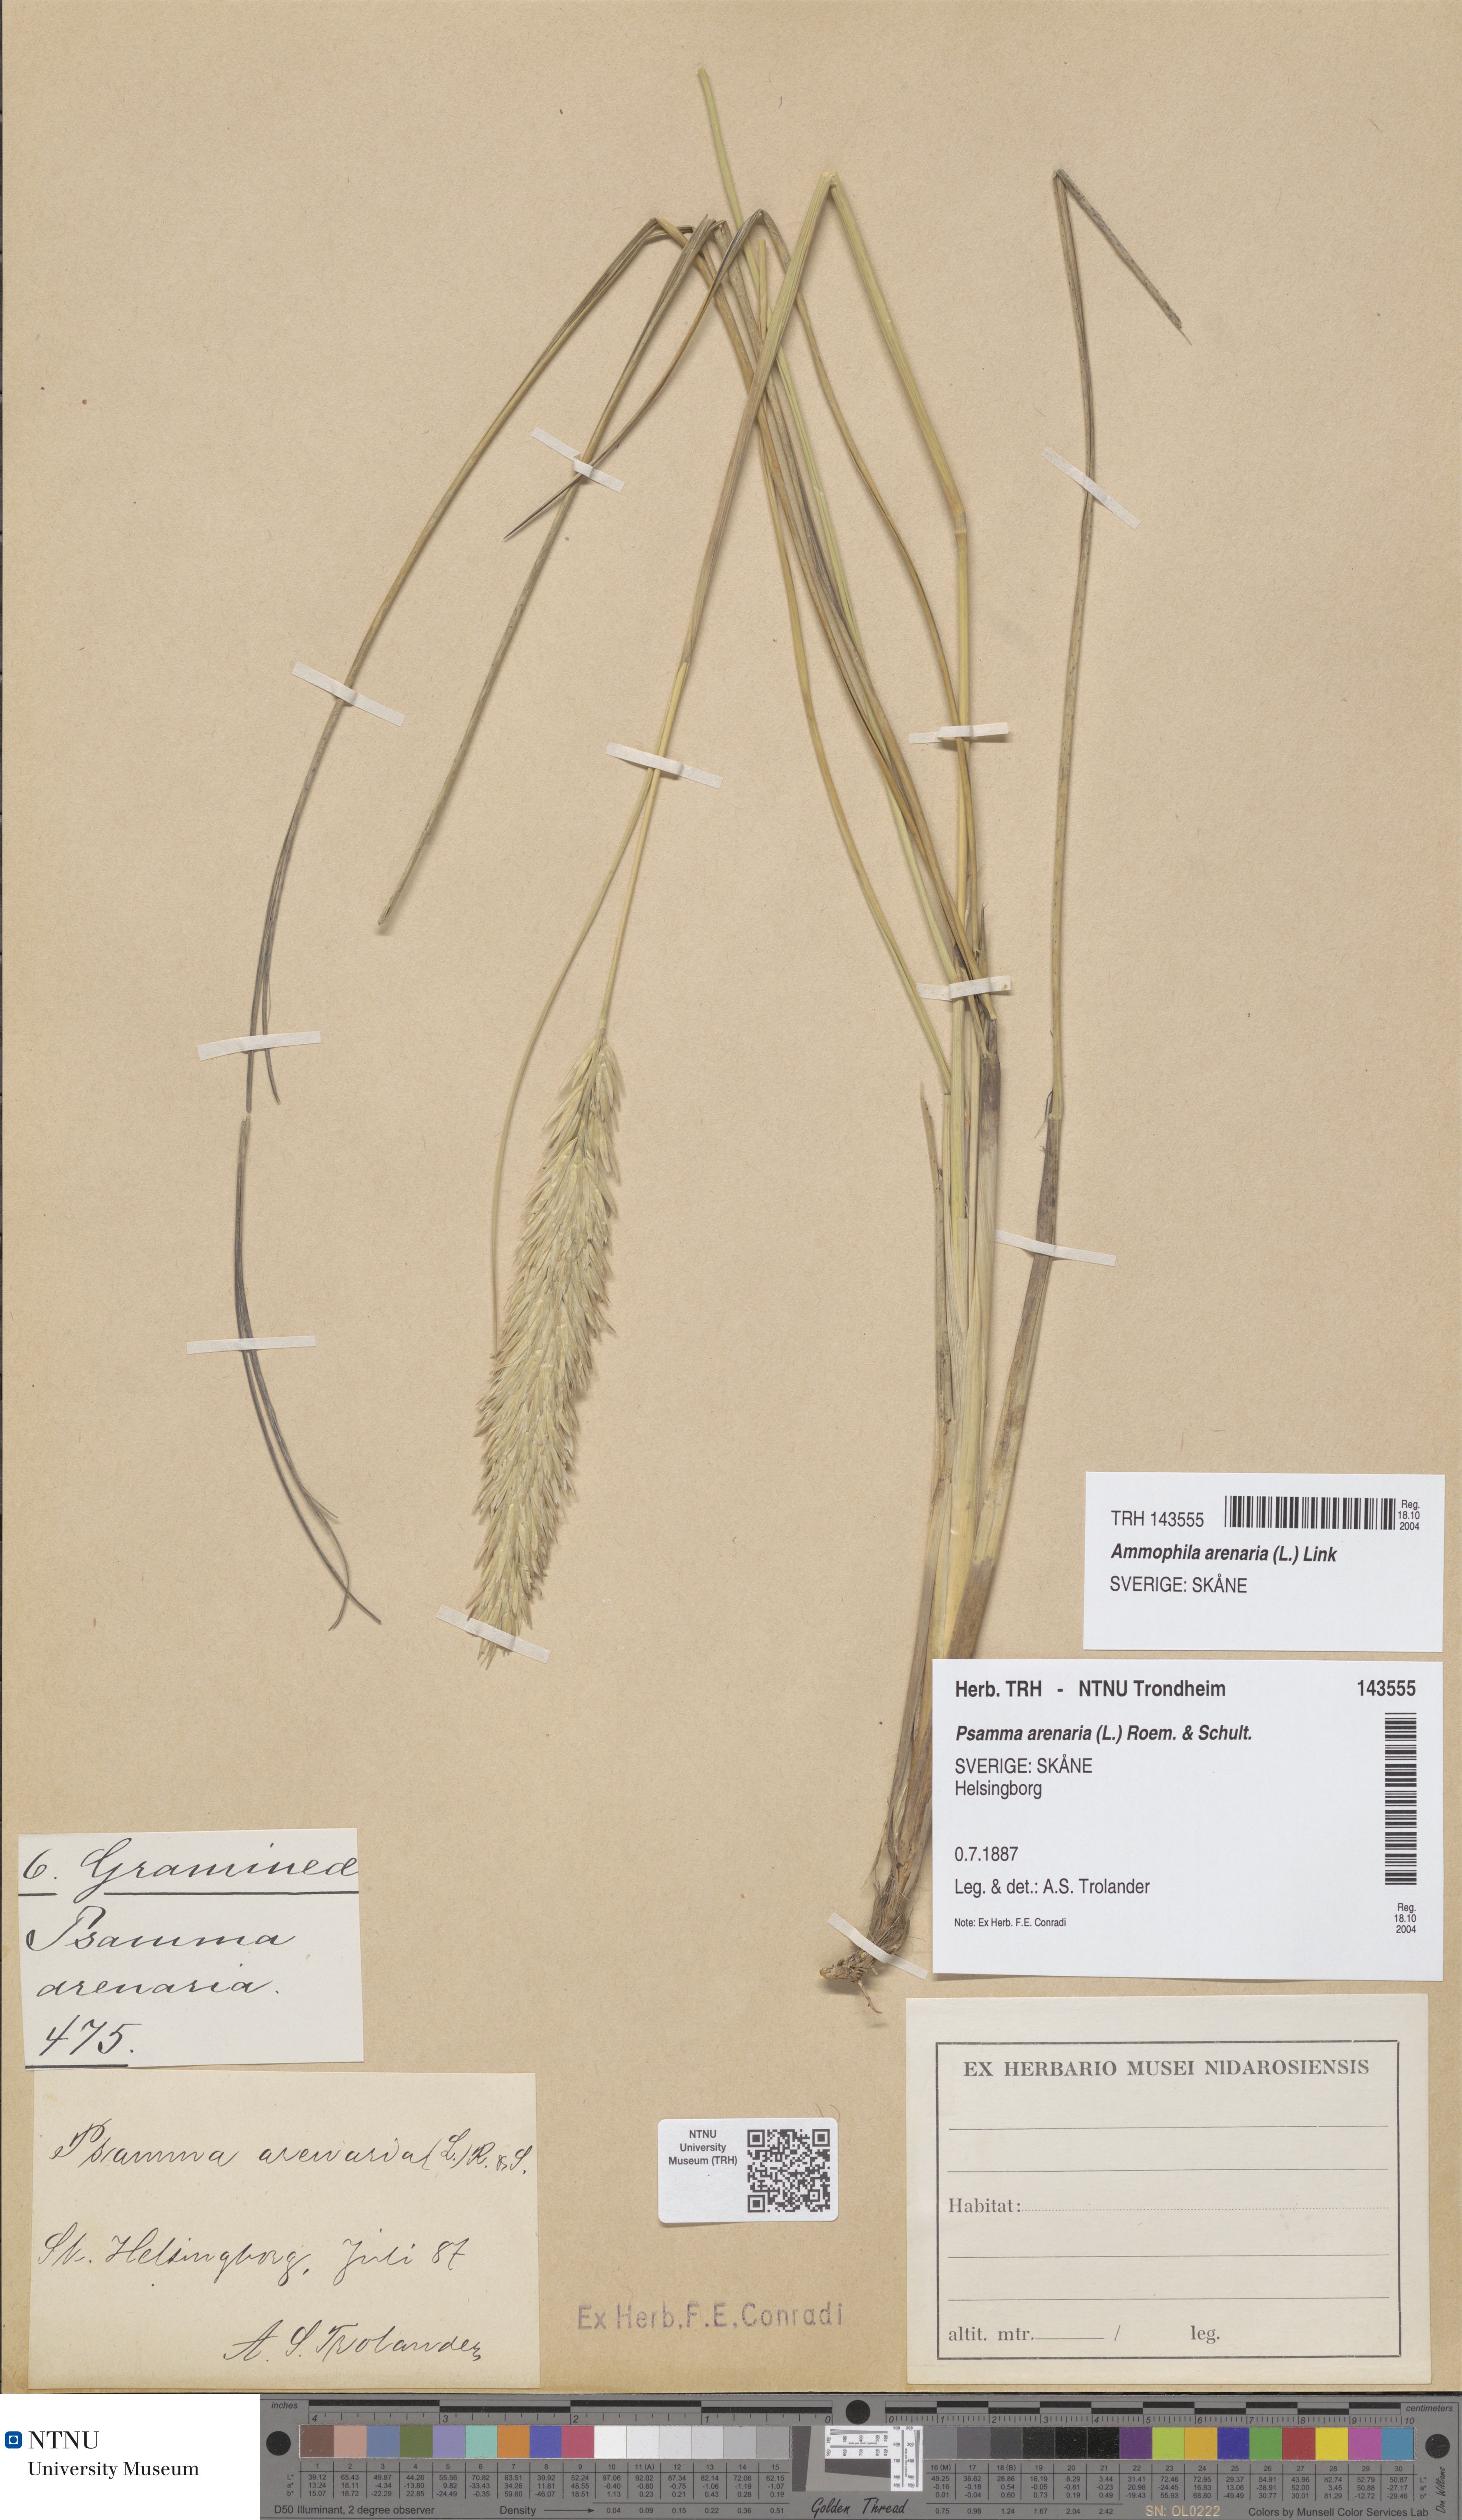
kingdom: Plantae
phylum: Tracheophyta
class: Liliopsida
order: Poales
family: Poaceae
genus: Calamagrostis
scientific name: Calamagrostis arenaria
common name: European beachgrass
